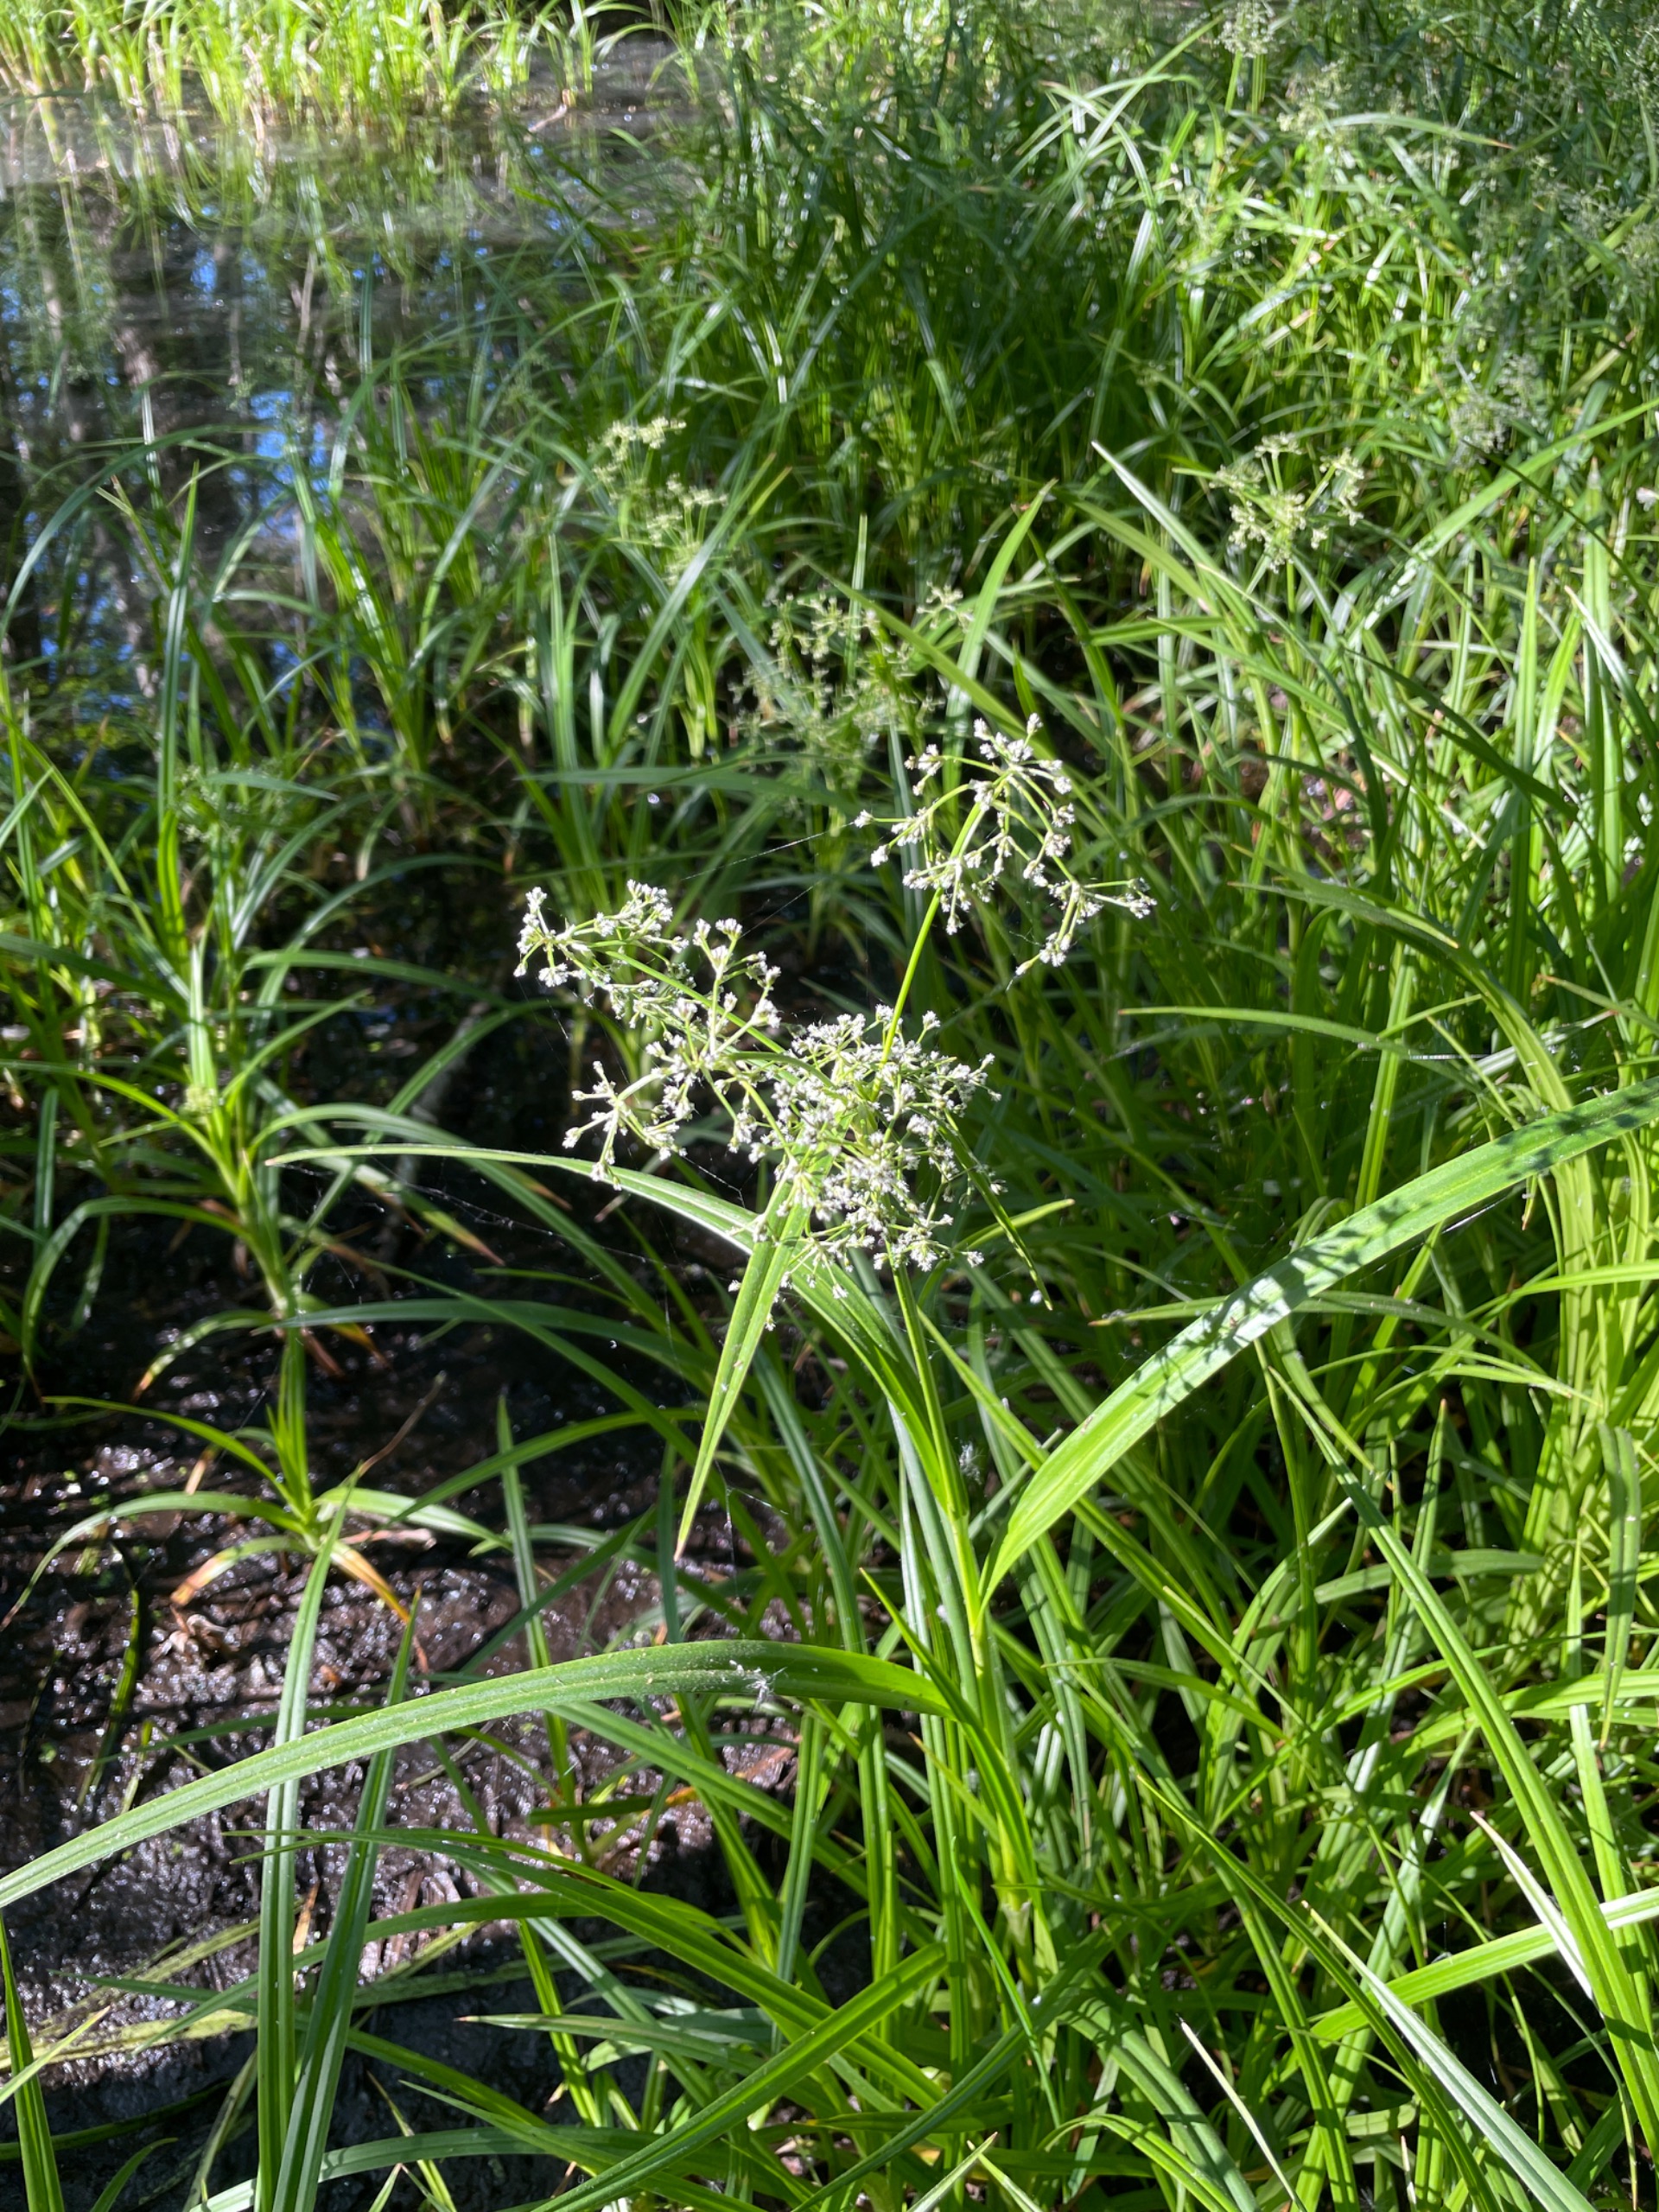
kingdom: Plantae
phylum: Tracheophyta
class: Liliopsida
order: Poales
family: Cyperaceae
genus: Scirpus
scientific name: Scirpus sylvaticus
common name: Skov-kogleaks
